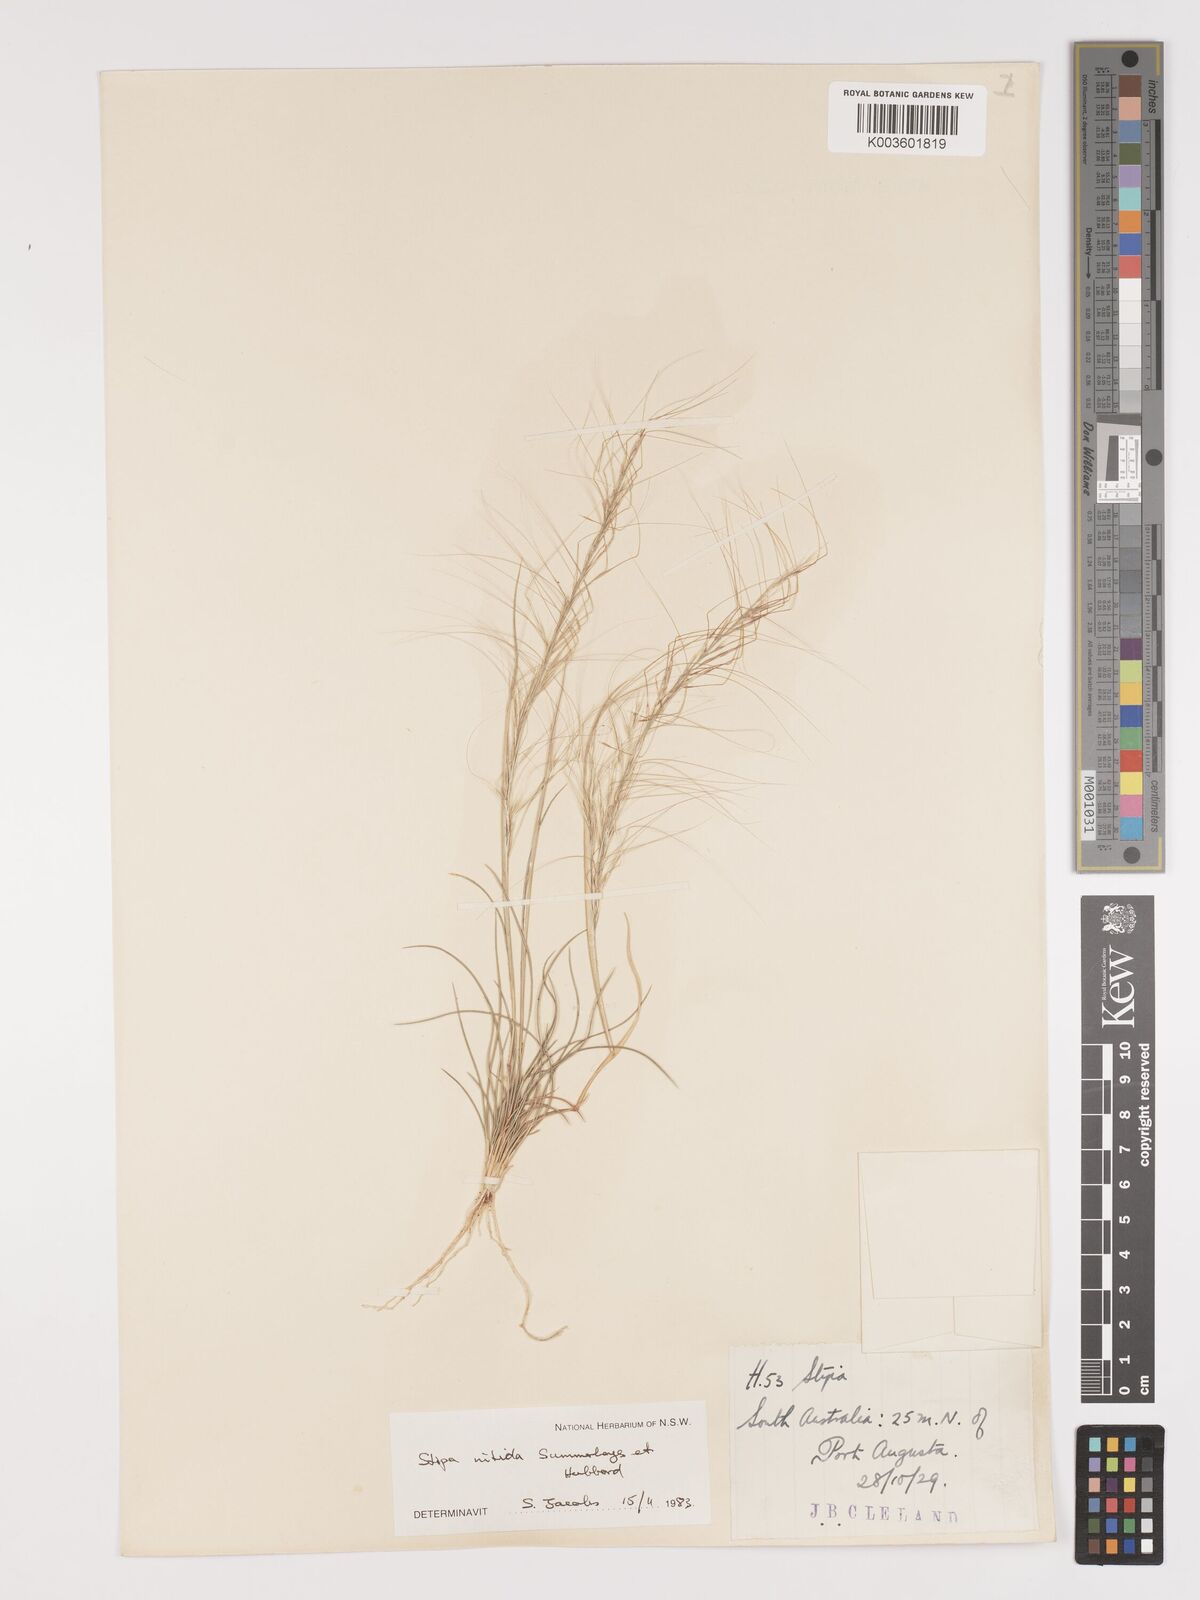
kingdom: Plantae
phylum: Tracheophyta
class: Liliopsida
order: Poales
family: Poaceae
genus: Austrostipa
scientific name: Austrostipa nitida
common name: Balcarra grass
